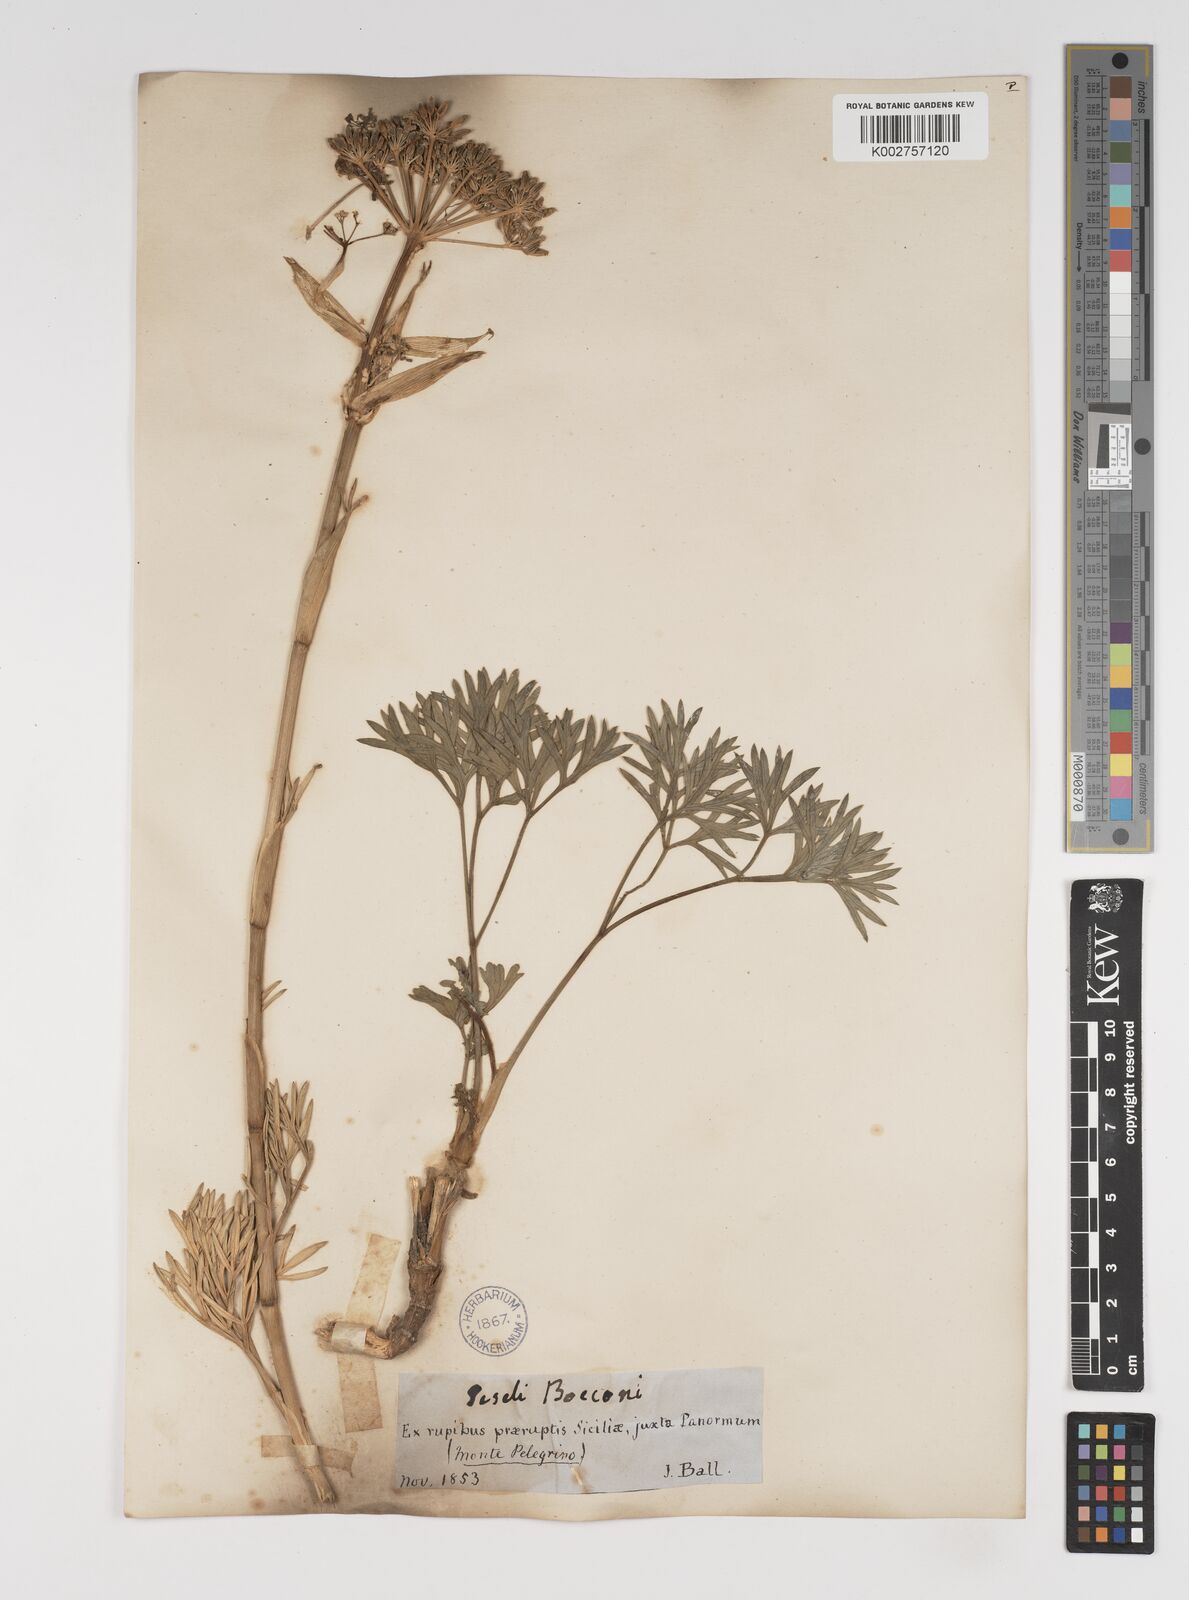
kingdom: Plantae
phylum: Tracheophyta
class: Magnoliopsida
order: Apiales
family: Apiaceae
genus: Seseli
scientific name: Seseli bocconei
